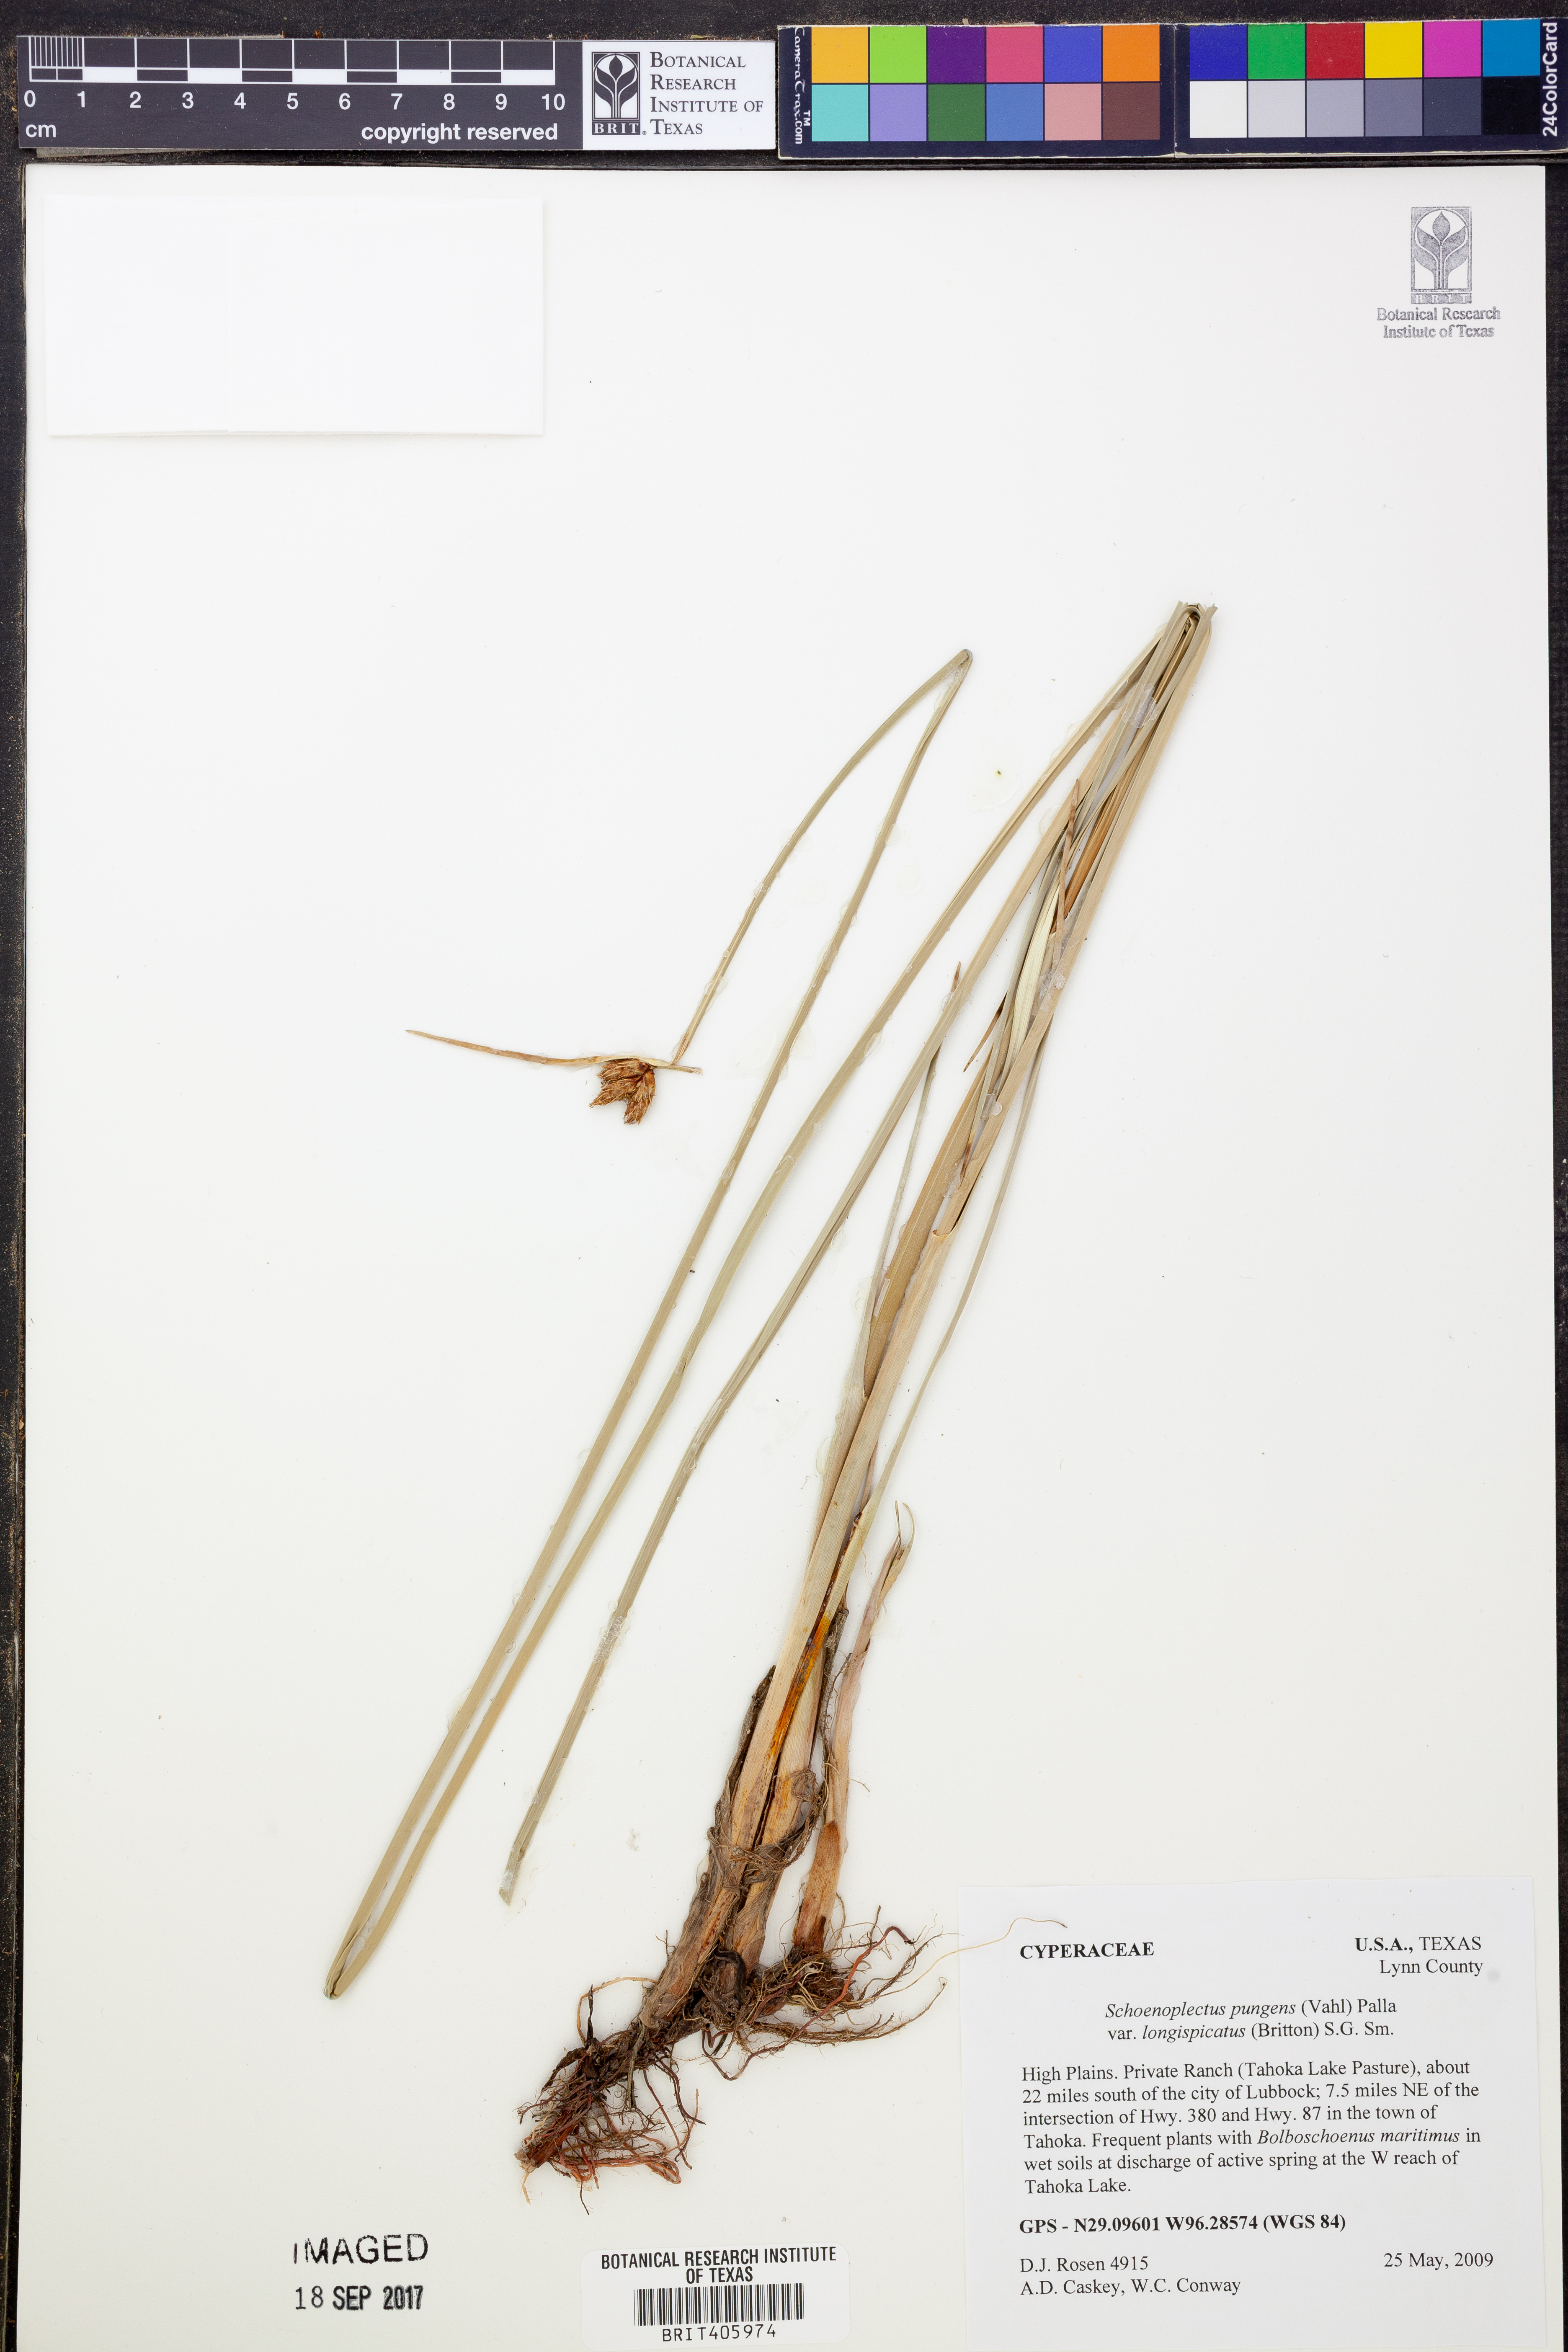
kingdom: Plantae
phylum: Tracheophyta
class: Liliopsida
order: Poales
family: Cyperaceae
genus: Schoenoplectus
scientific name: Schoenoplectus pungens
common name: Sharp club-rush
